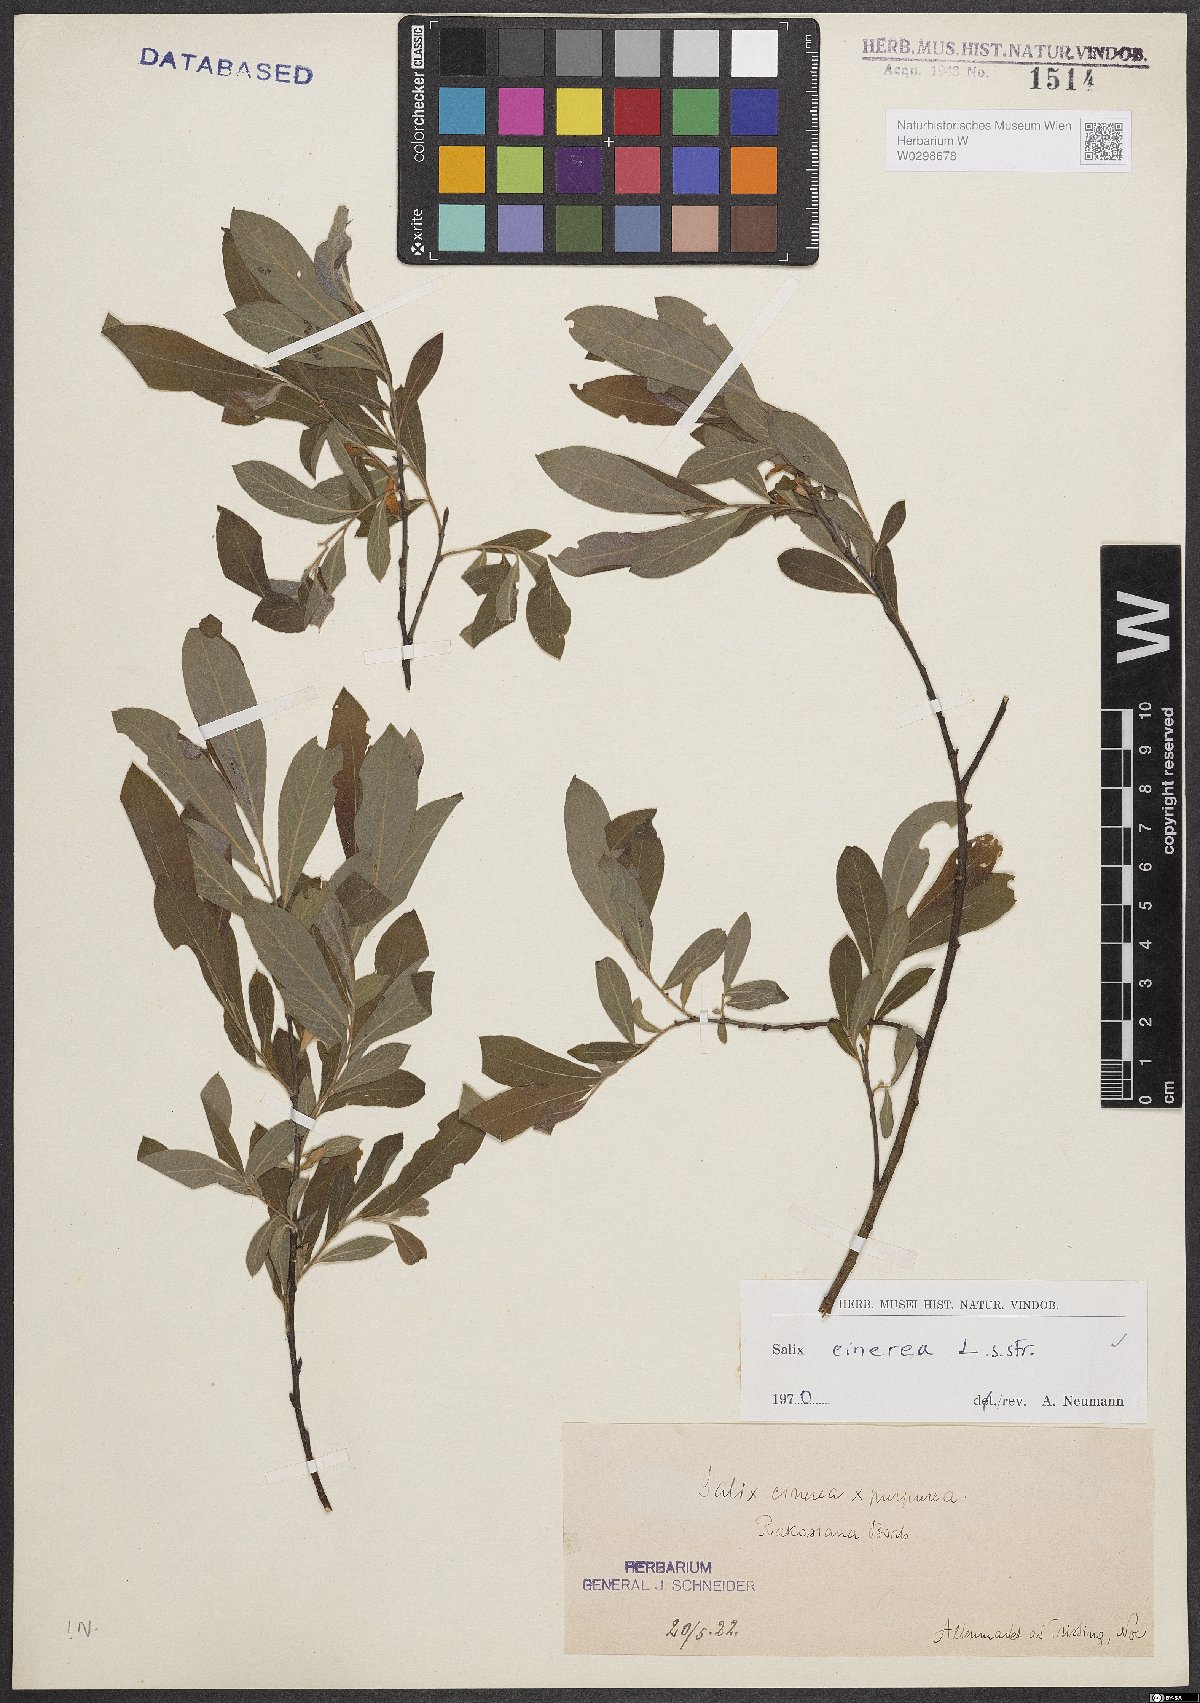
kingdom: Plantae
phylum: Tracheophyta
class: Magnoliopsida
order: Malpighiales
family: Salicaceae
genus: Salix
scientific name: Salix cinerea
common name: Common sallow
